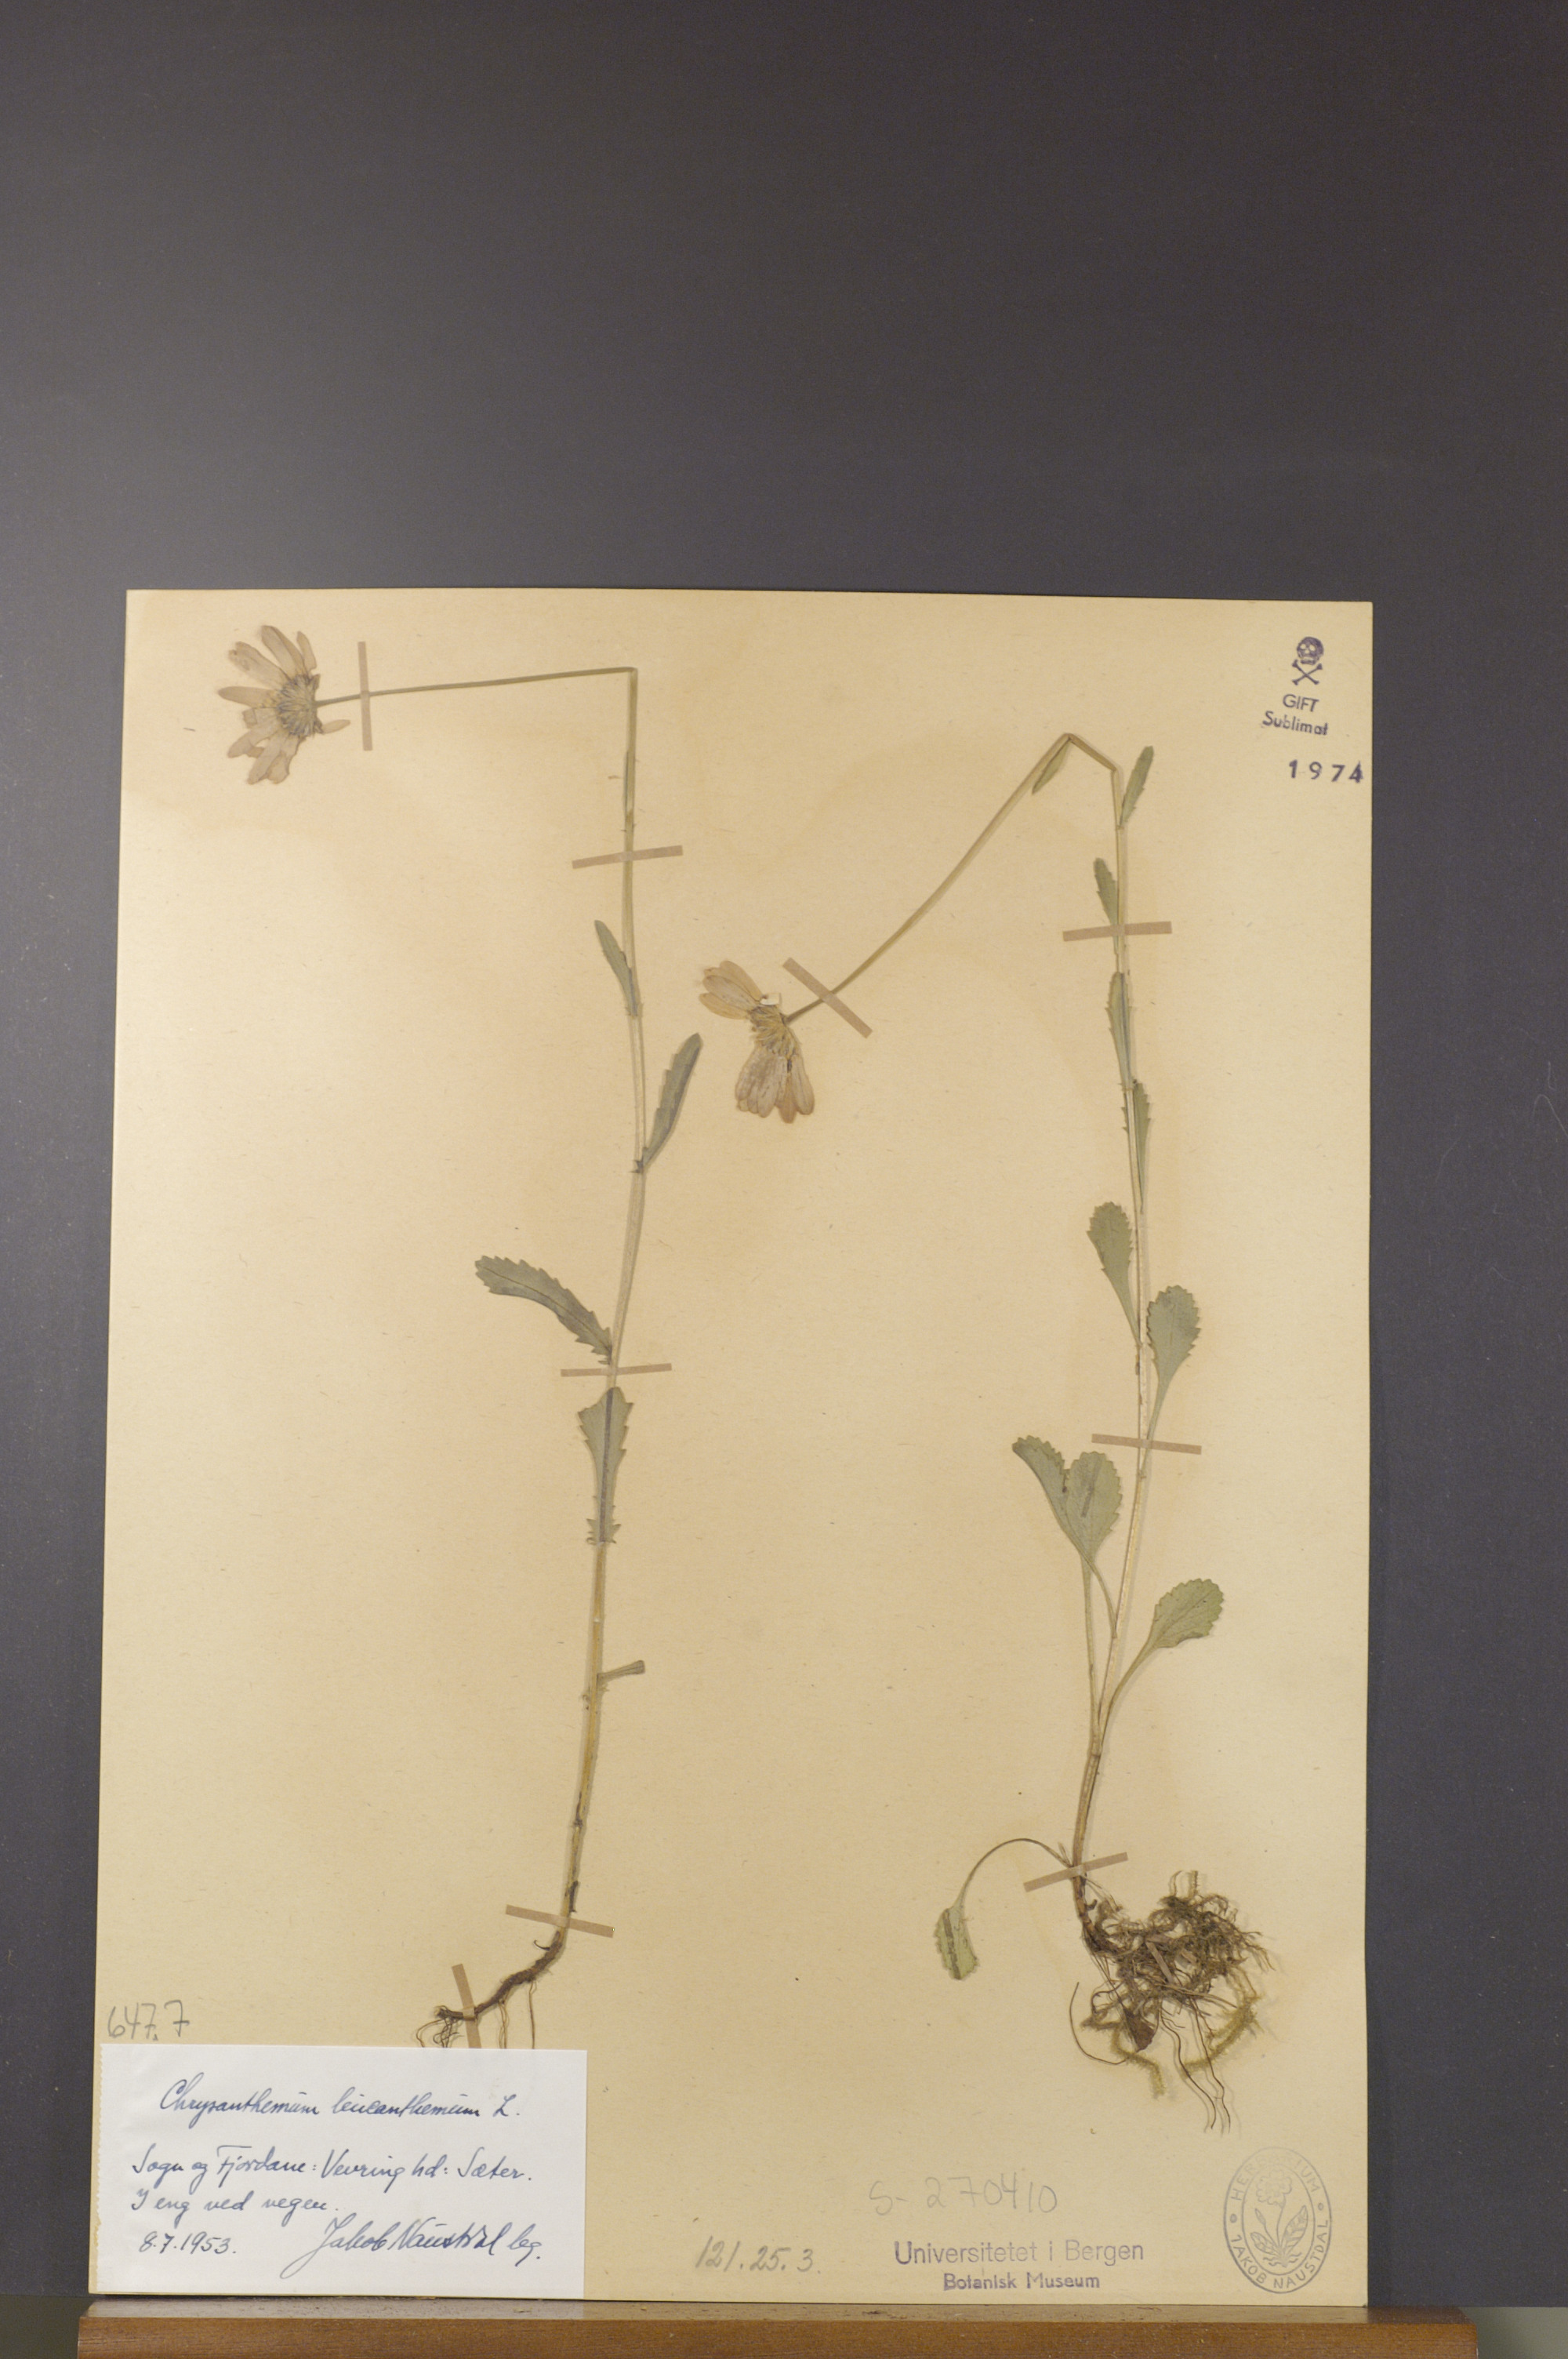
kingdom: Plantae
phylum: Tracheophyta
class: Magnoliopsida
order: Asterales
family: Asteraceae
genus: Leucanthemum
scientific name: Leucanthemum vulgare
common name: Oxeye daisy
